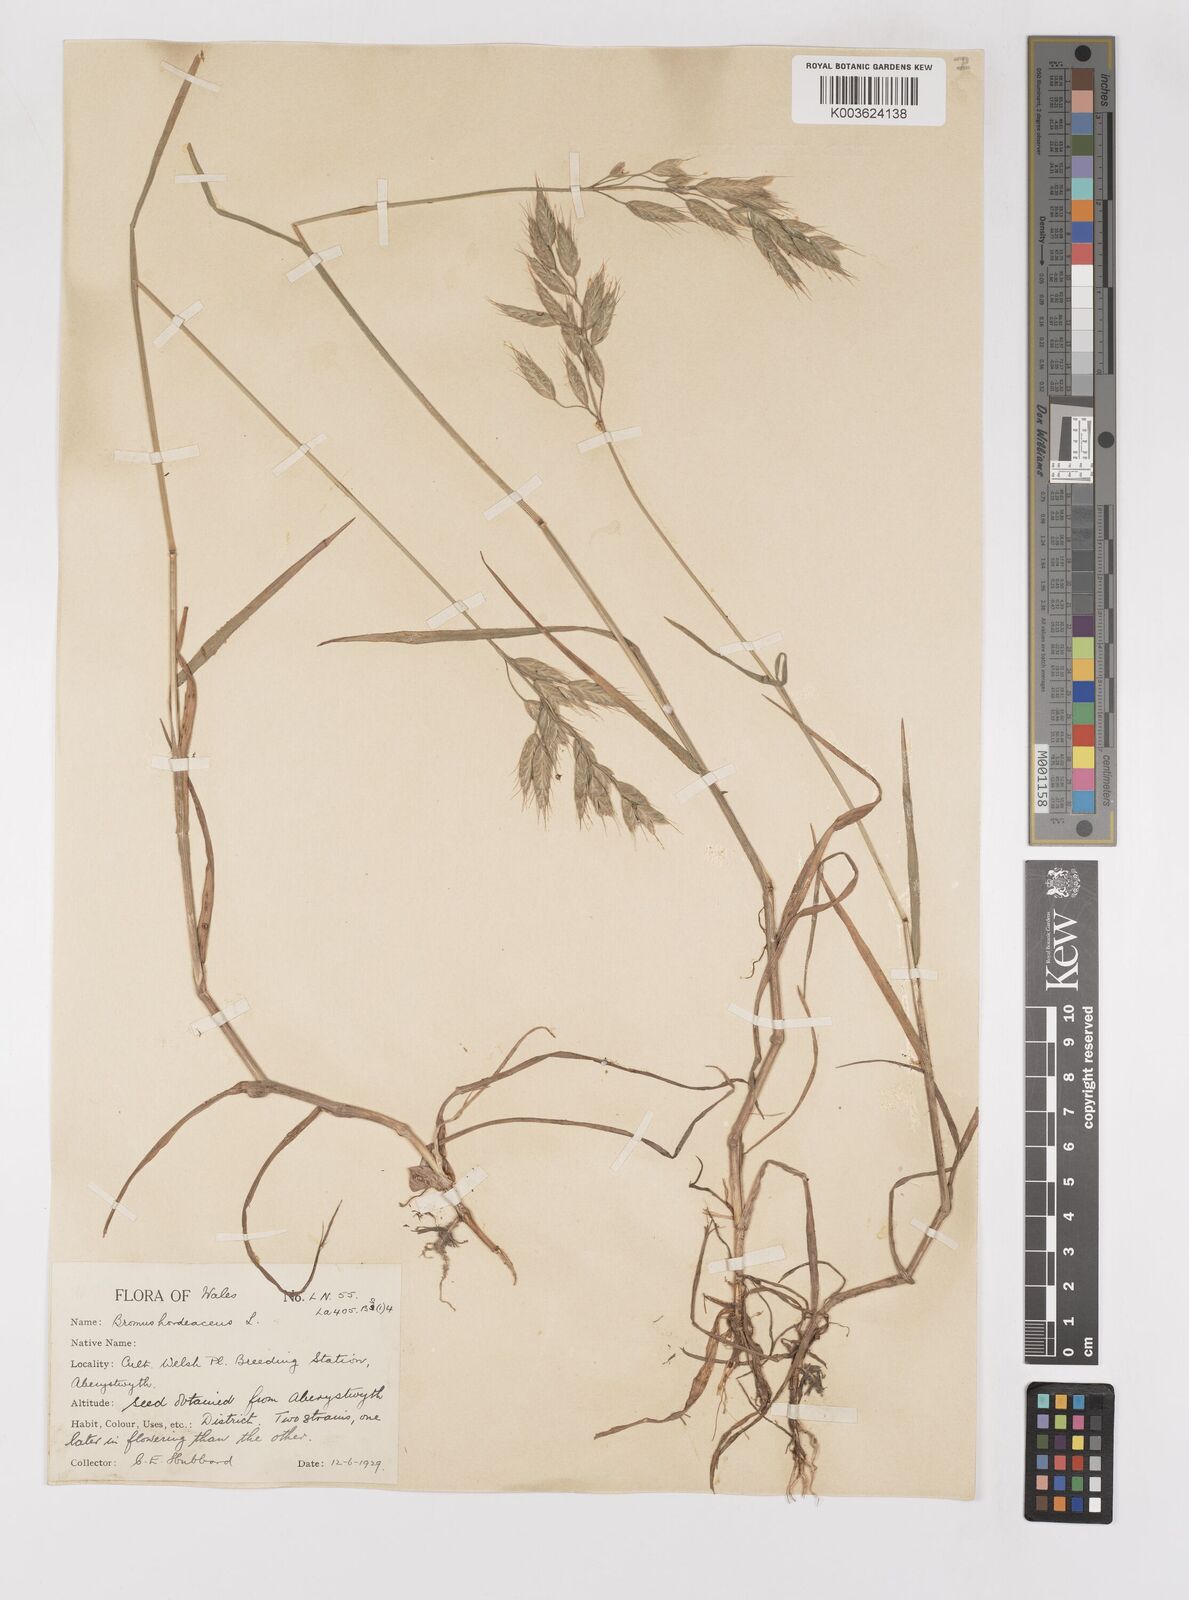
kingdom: Plantae
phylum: Tracheophyta
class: Liliopsida
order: Poales
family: Poaceae
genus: Bromus
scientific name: Bromus hordeaceus
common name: Soft brome
